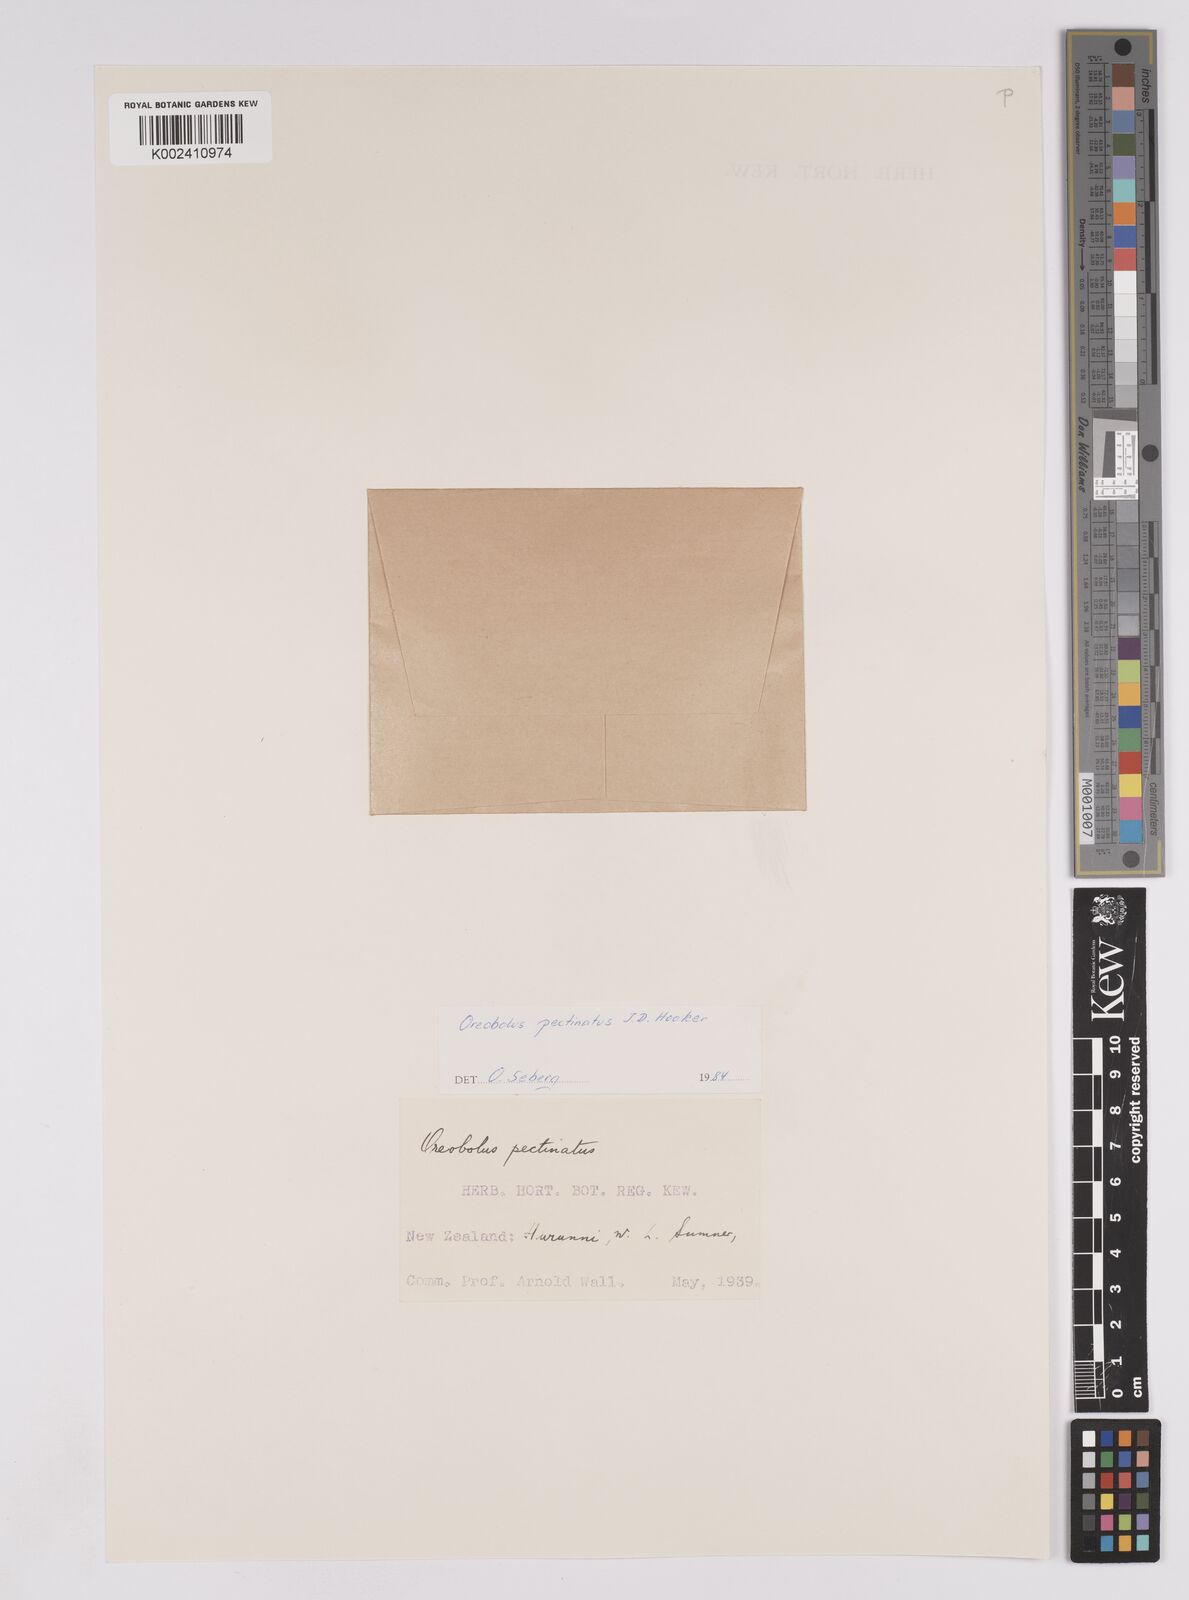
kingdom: Plantae
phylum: Tracheophyta
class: Liliopsida
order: Poales
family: Cyperaceae
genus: Oreobolus
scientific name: Oreobolus pectinatus
